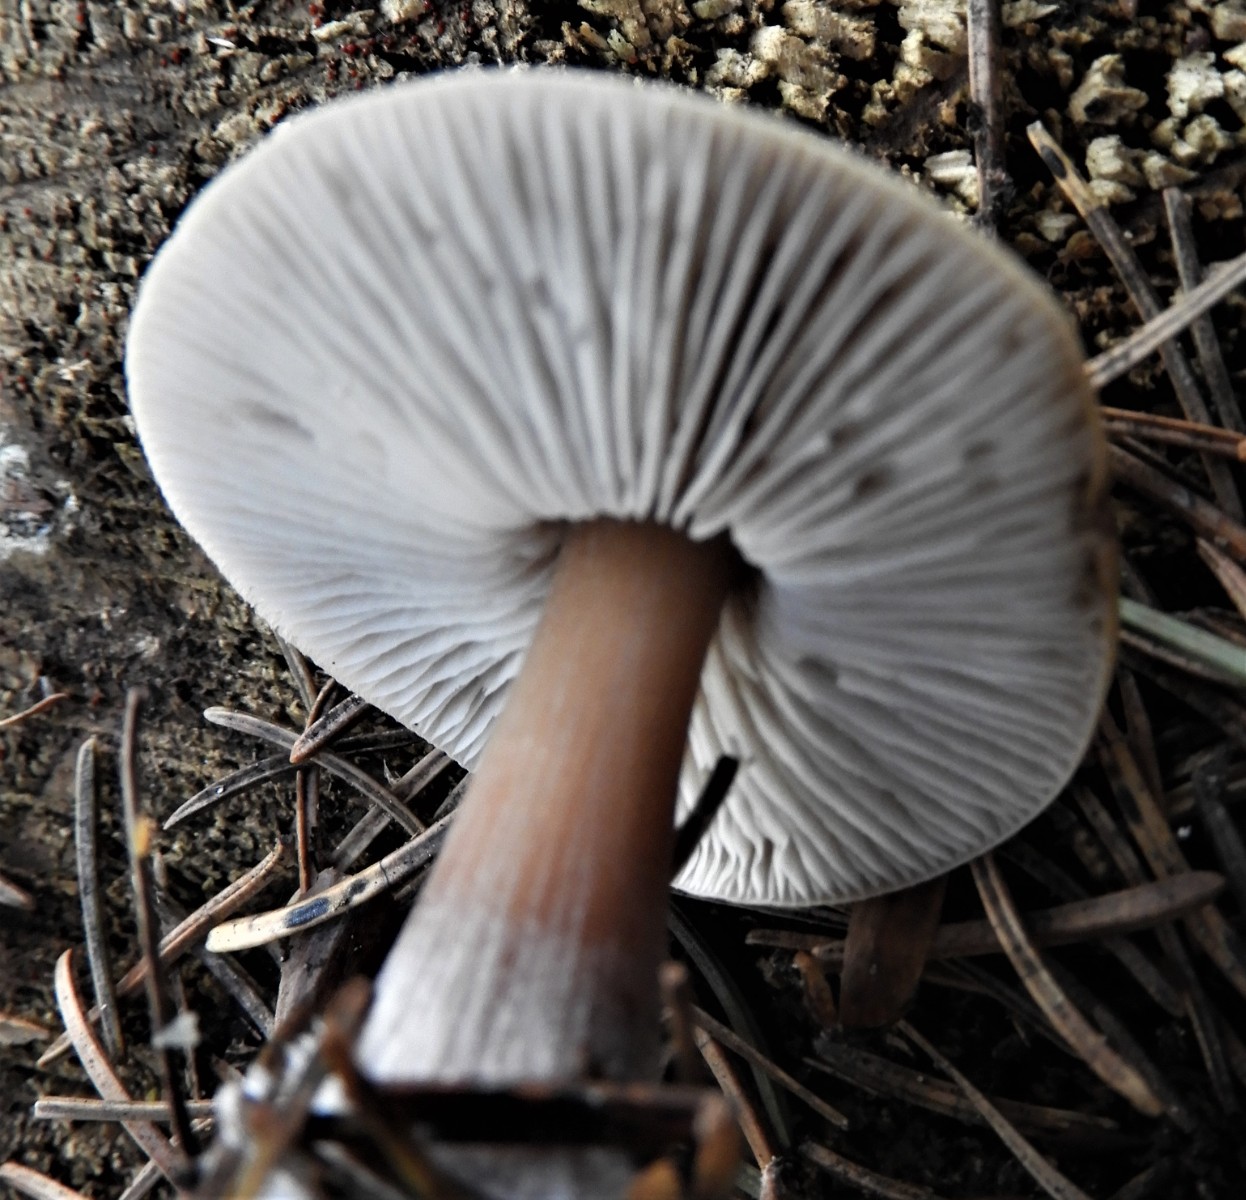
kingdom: Fungi
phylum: Basidiomycota
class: Agaricomycetes
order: Agaricales
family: Omphalotaceae
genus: Rhodocollybia
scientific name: Rhodocollybia asema
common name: horngrå fladhat
